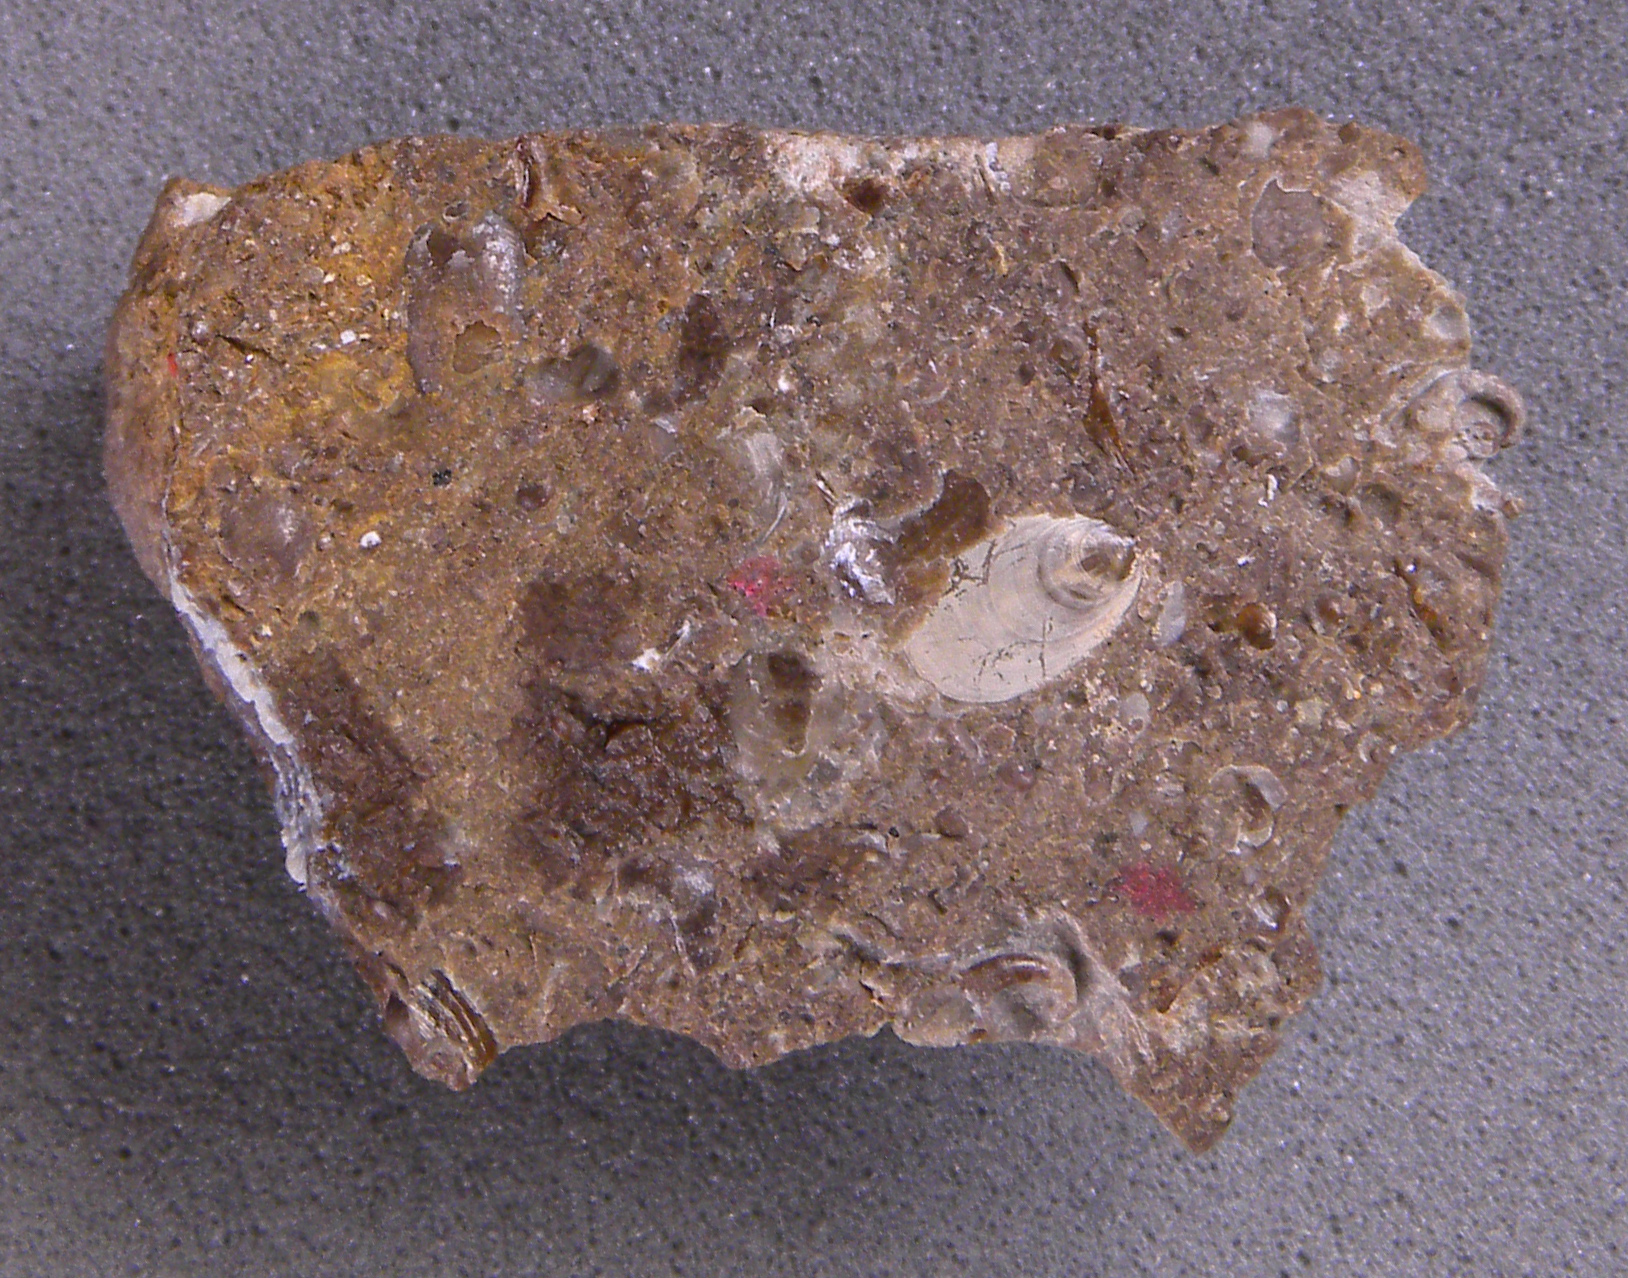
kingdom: Animalia
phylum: Mollusca
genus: Simoniceras
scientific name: Simoniceras
